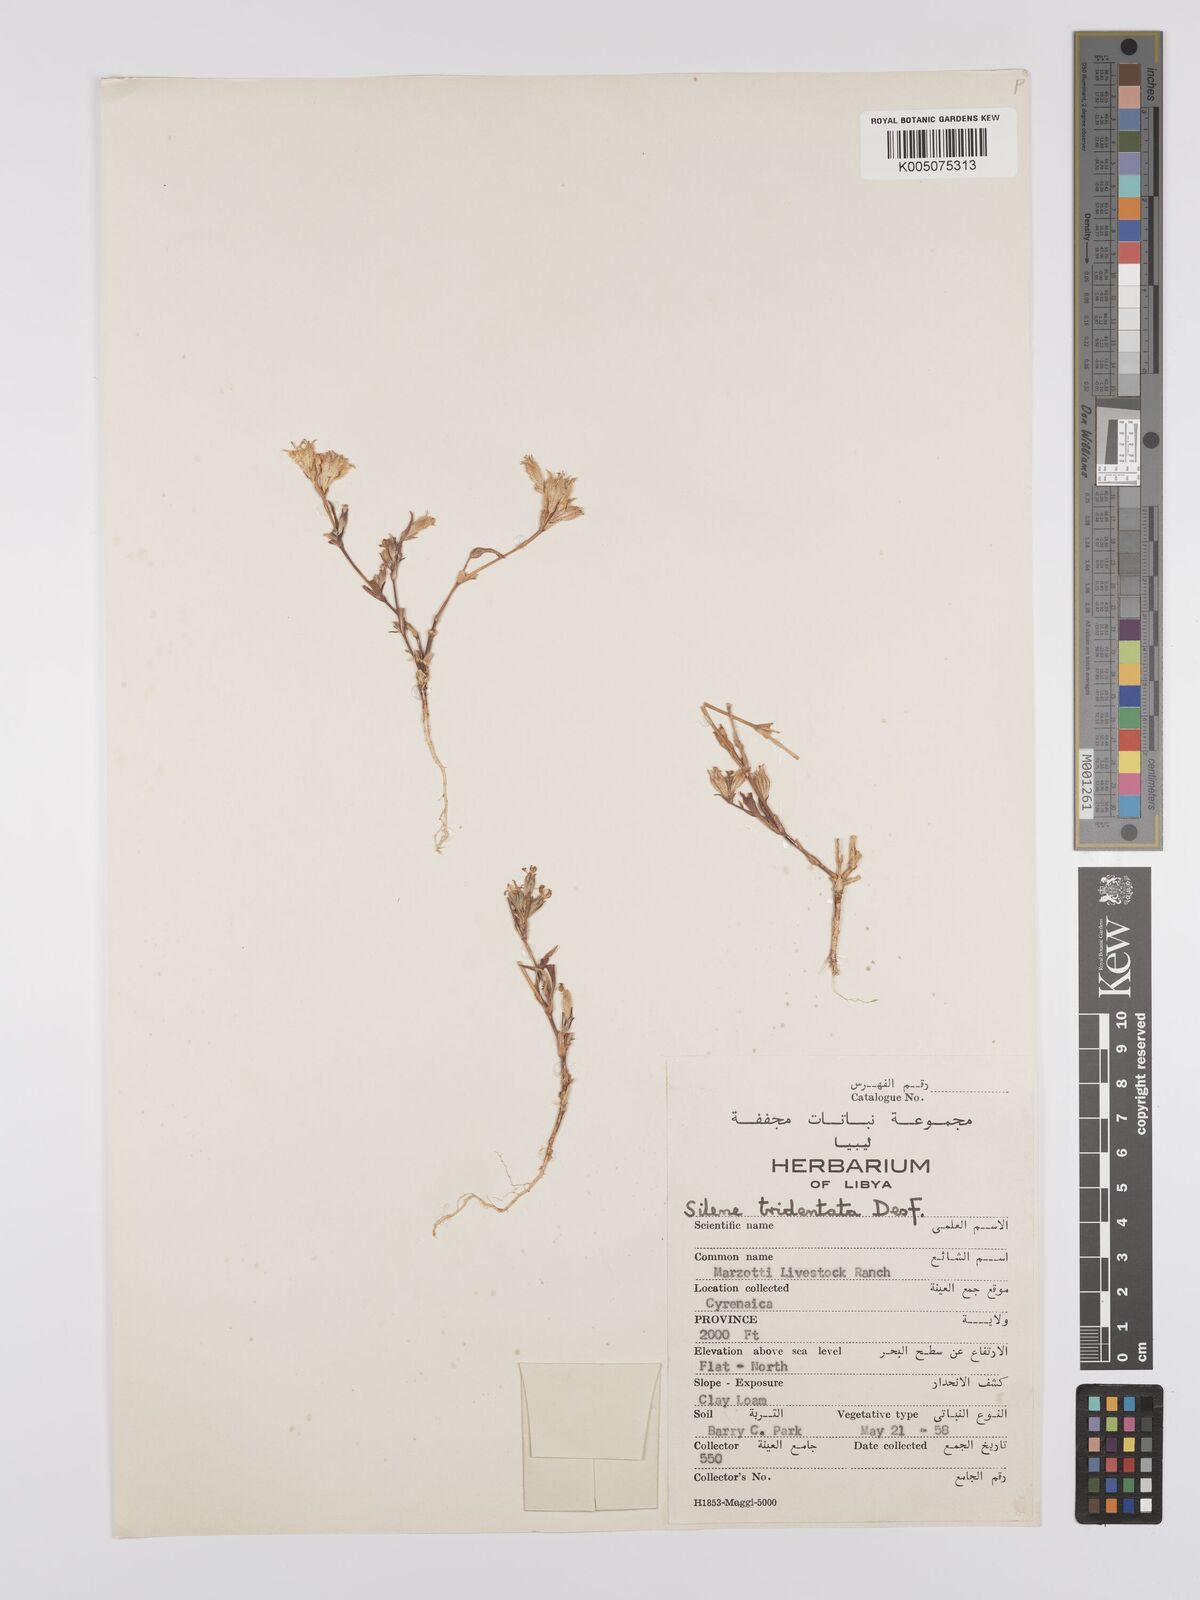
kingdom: Plantae
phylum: Tracheophyta
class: Magnoliopsida
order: Caryophyllales
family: Caryophyllaceae
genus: Silene
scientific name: Silene tridentata
